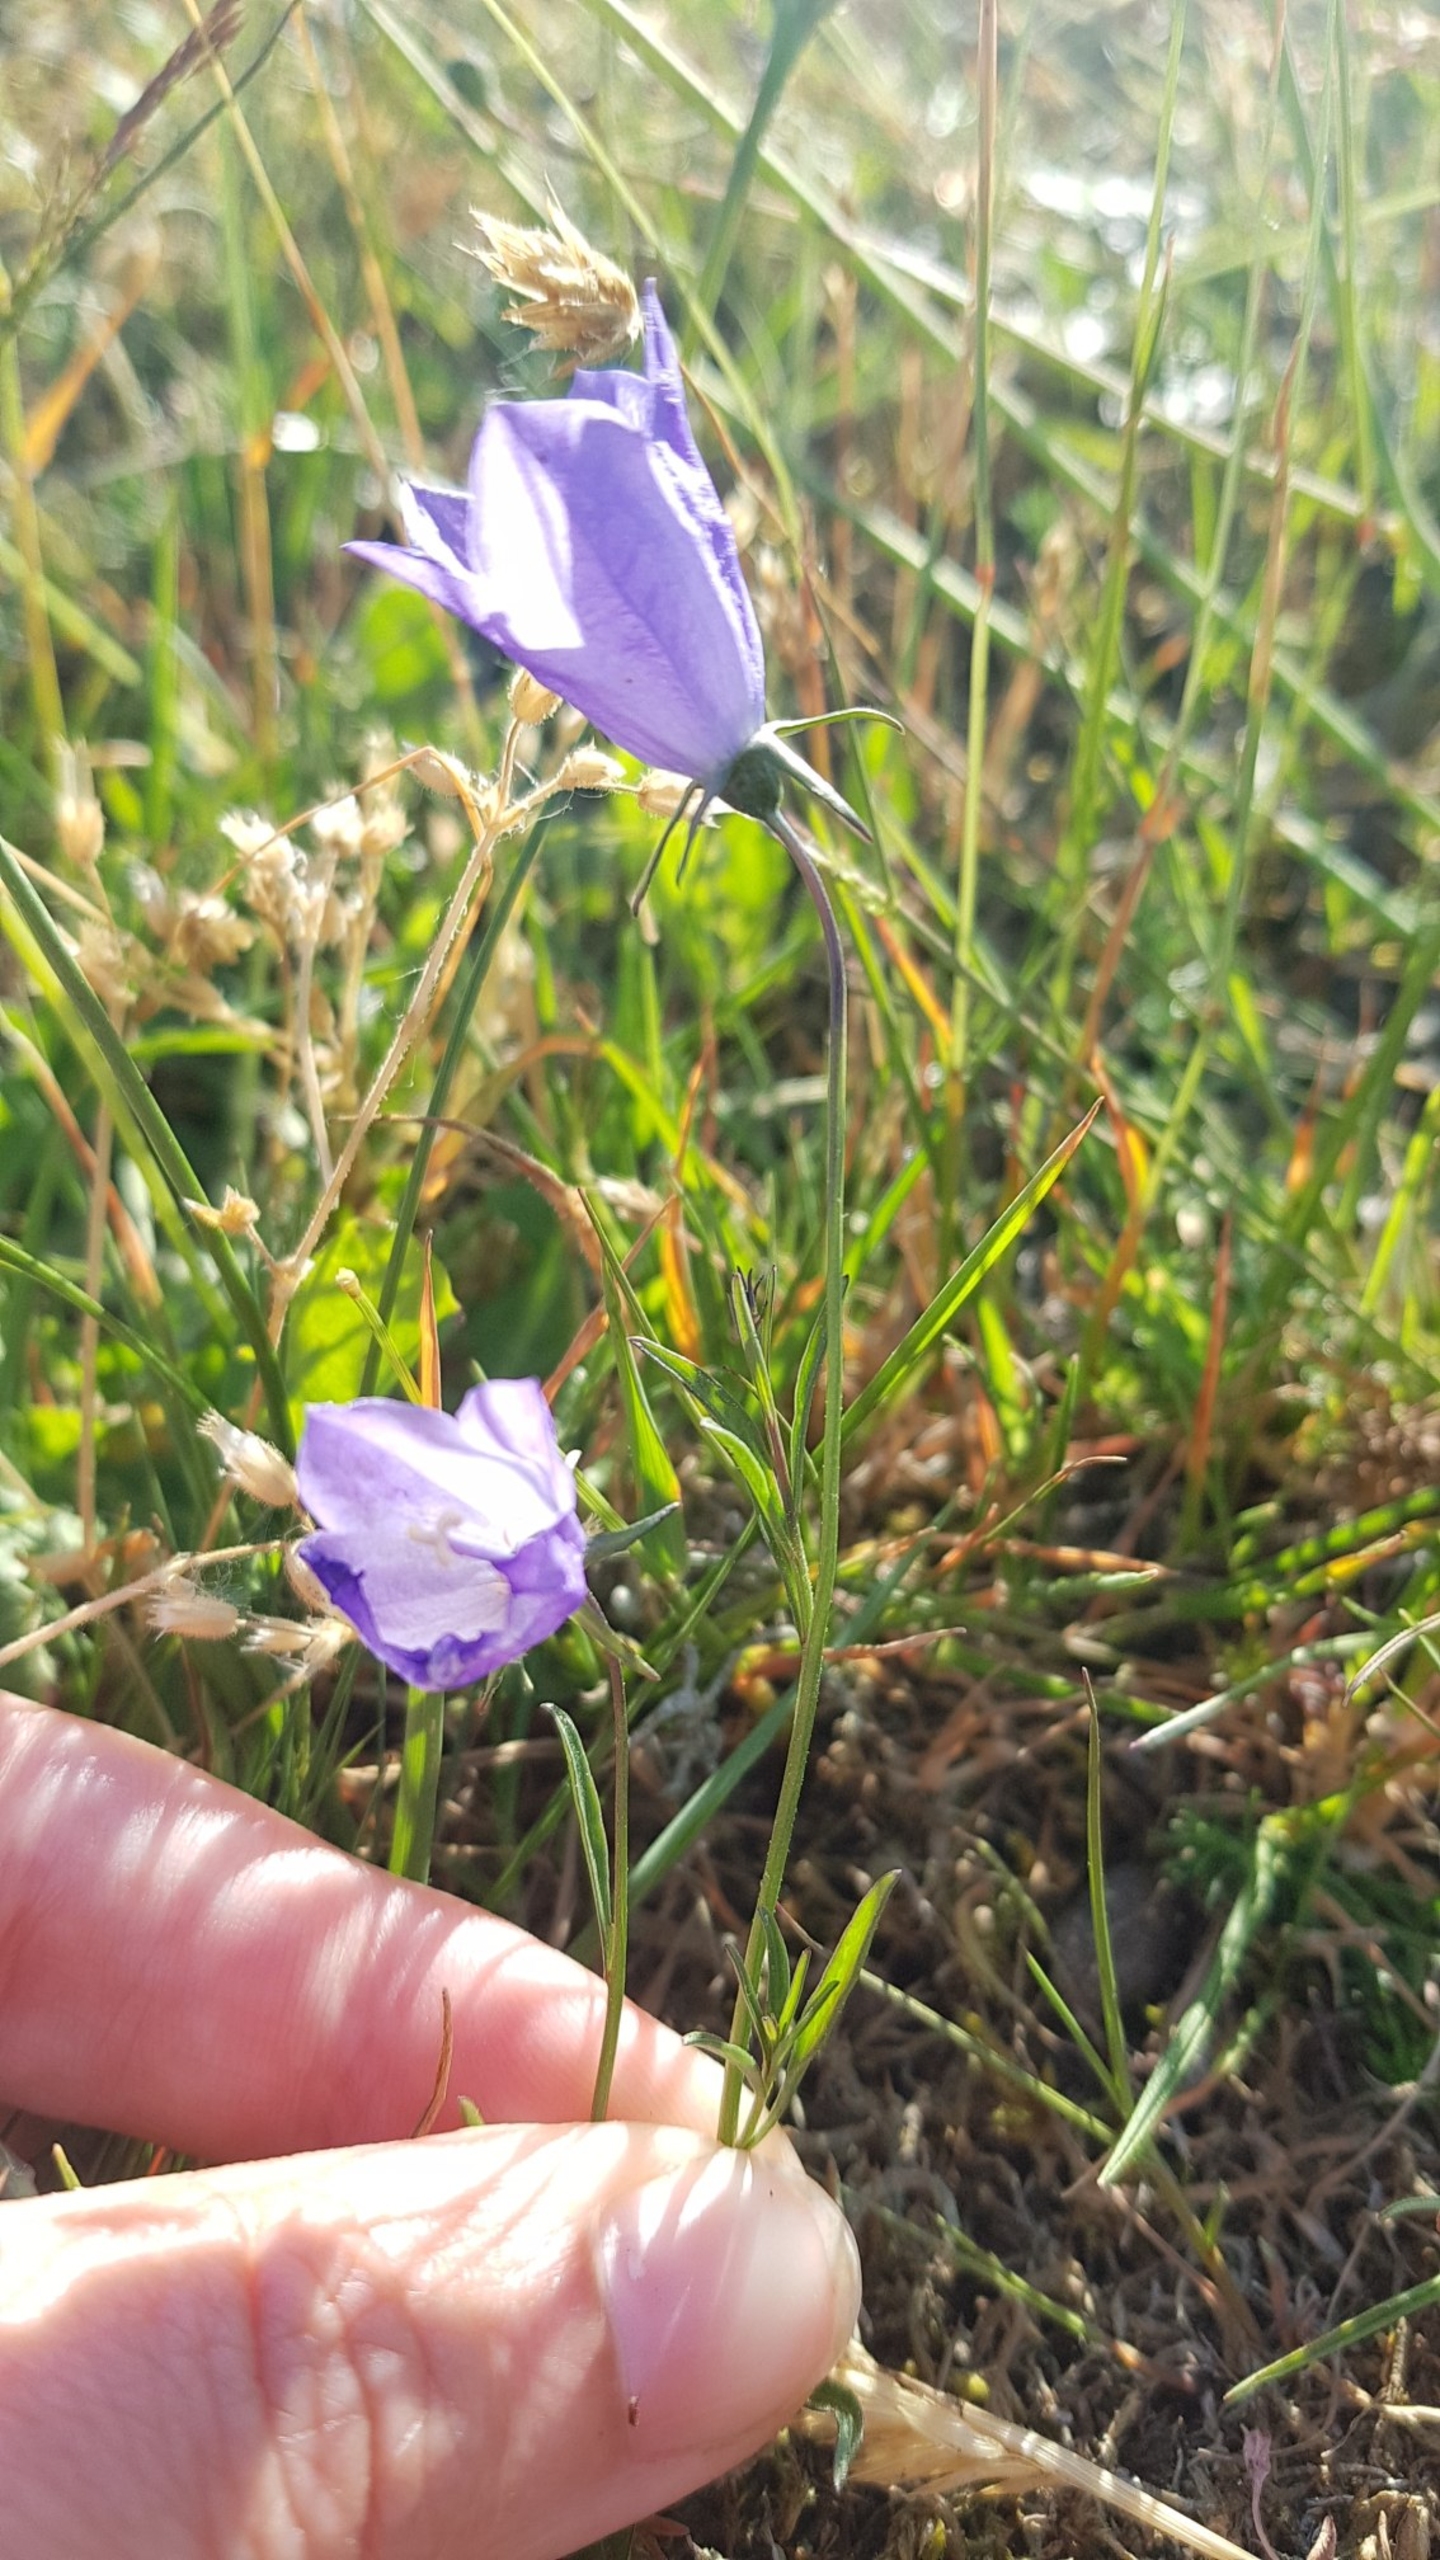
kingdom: Plantae
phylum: Tracheophyta
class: Magnoliopsida
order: Asterales
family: Campanulaceae
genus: Campanula
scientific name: Campanula rotundifolia
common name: Liden klokke
